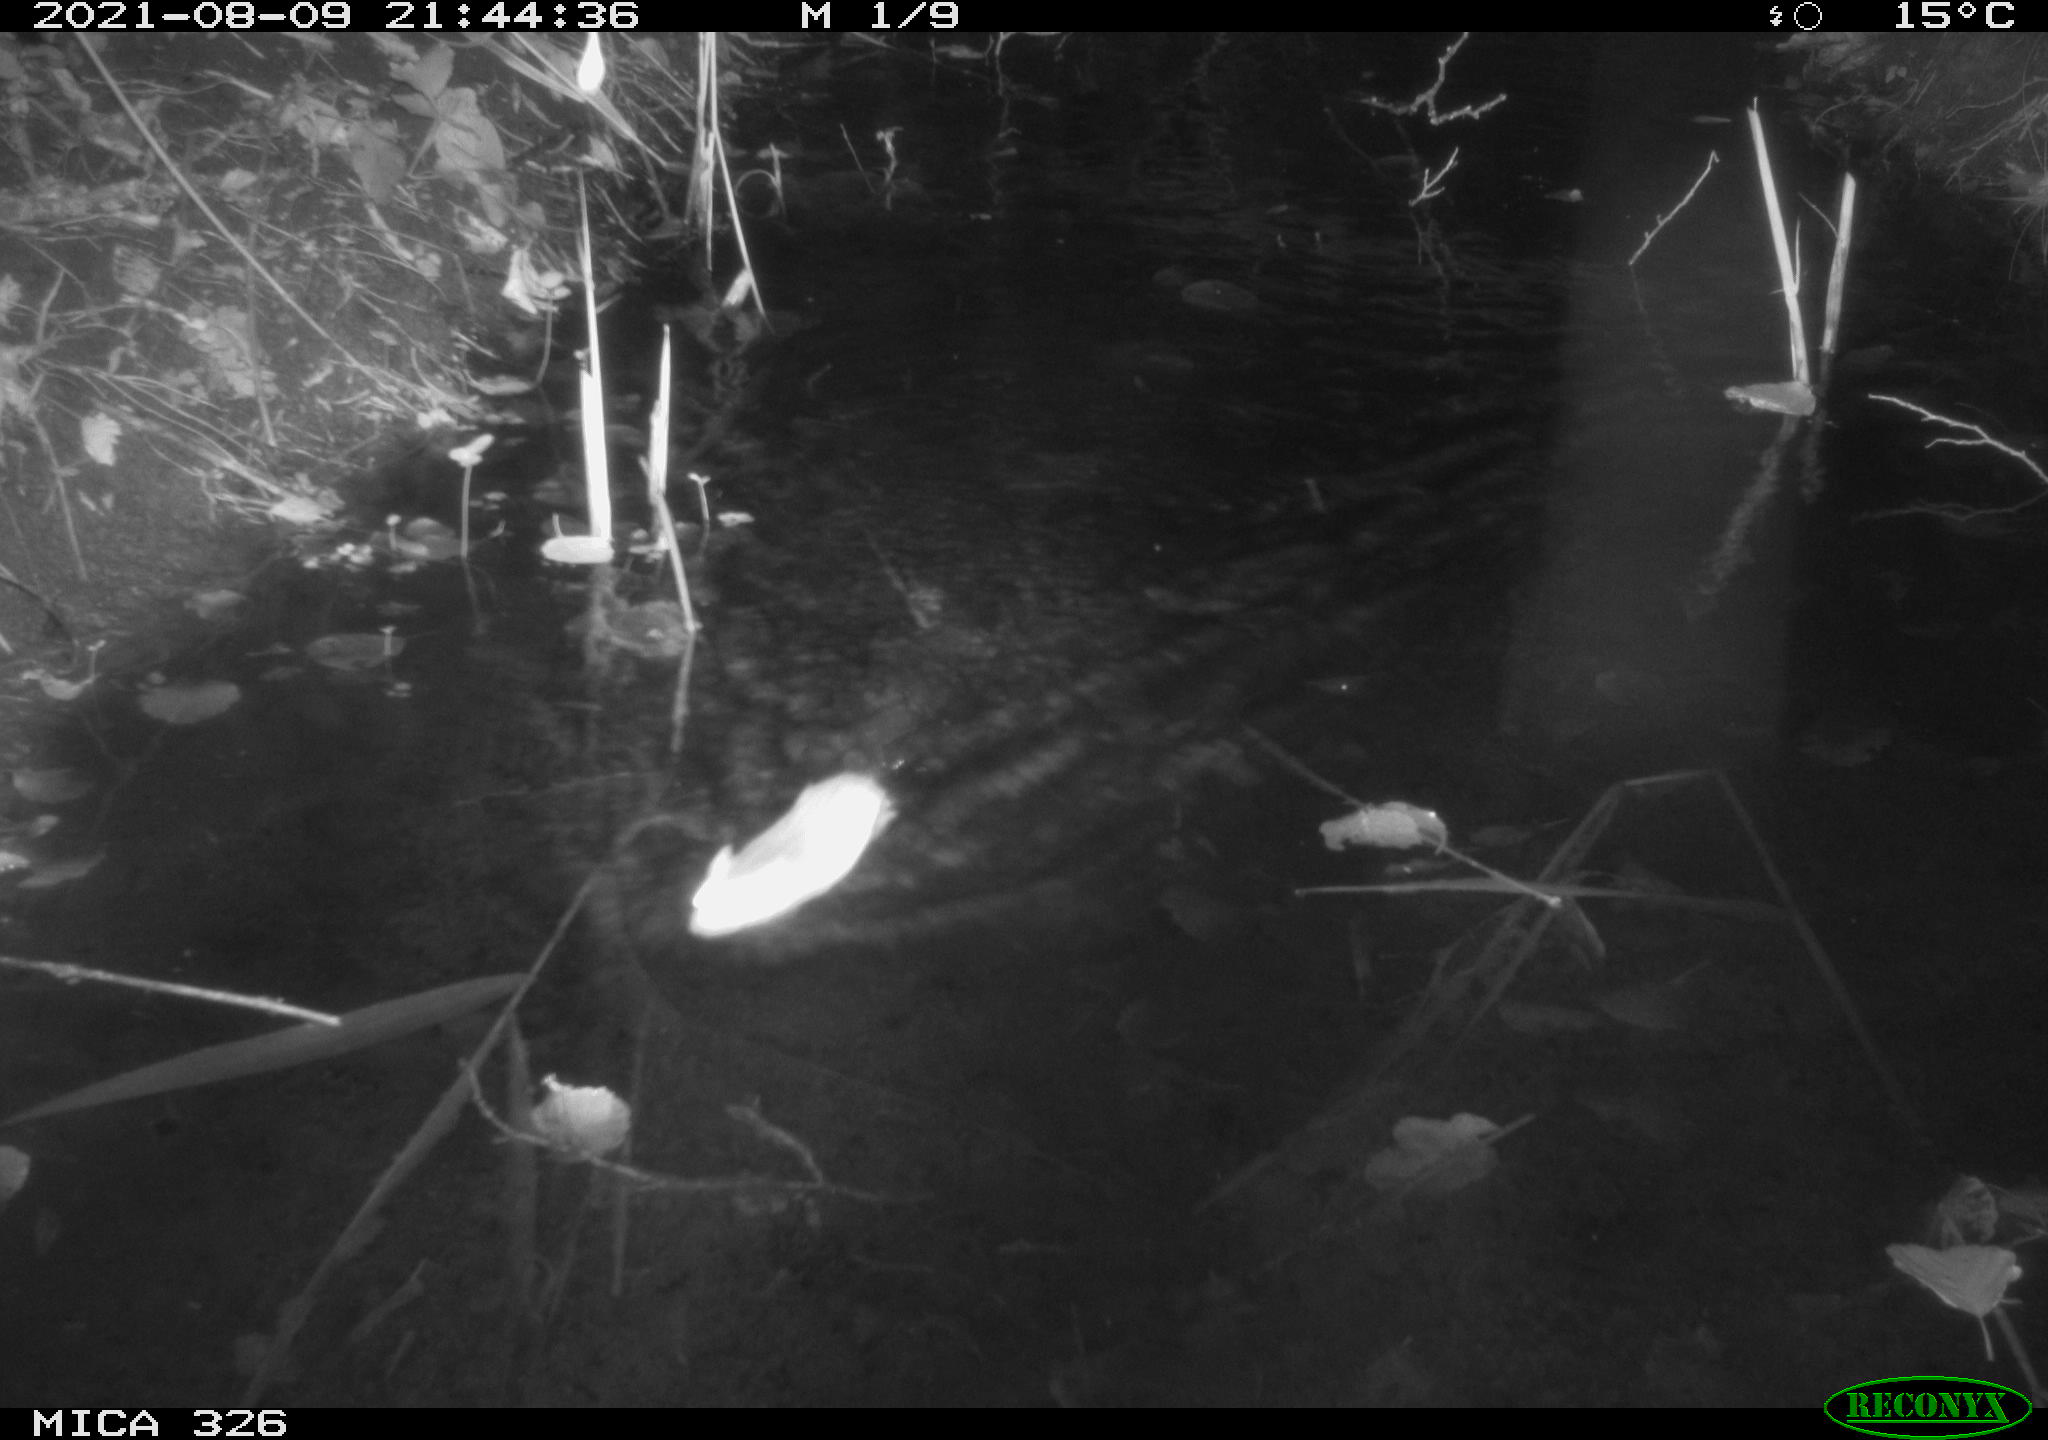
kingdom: Animalia
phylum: Chordata
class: Mammalia
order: Rodentia
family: Muridae
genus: Rattus
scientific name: Rattus norvegicus
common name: Brown rat
